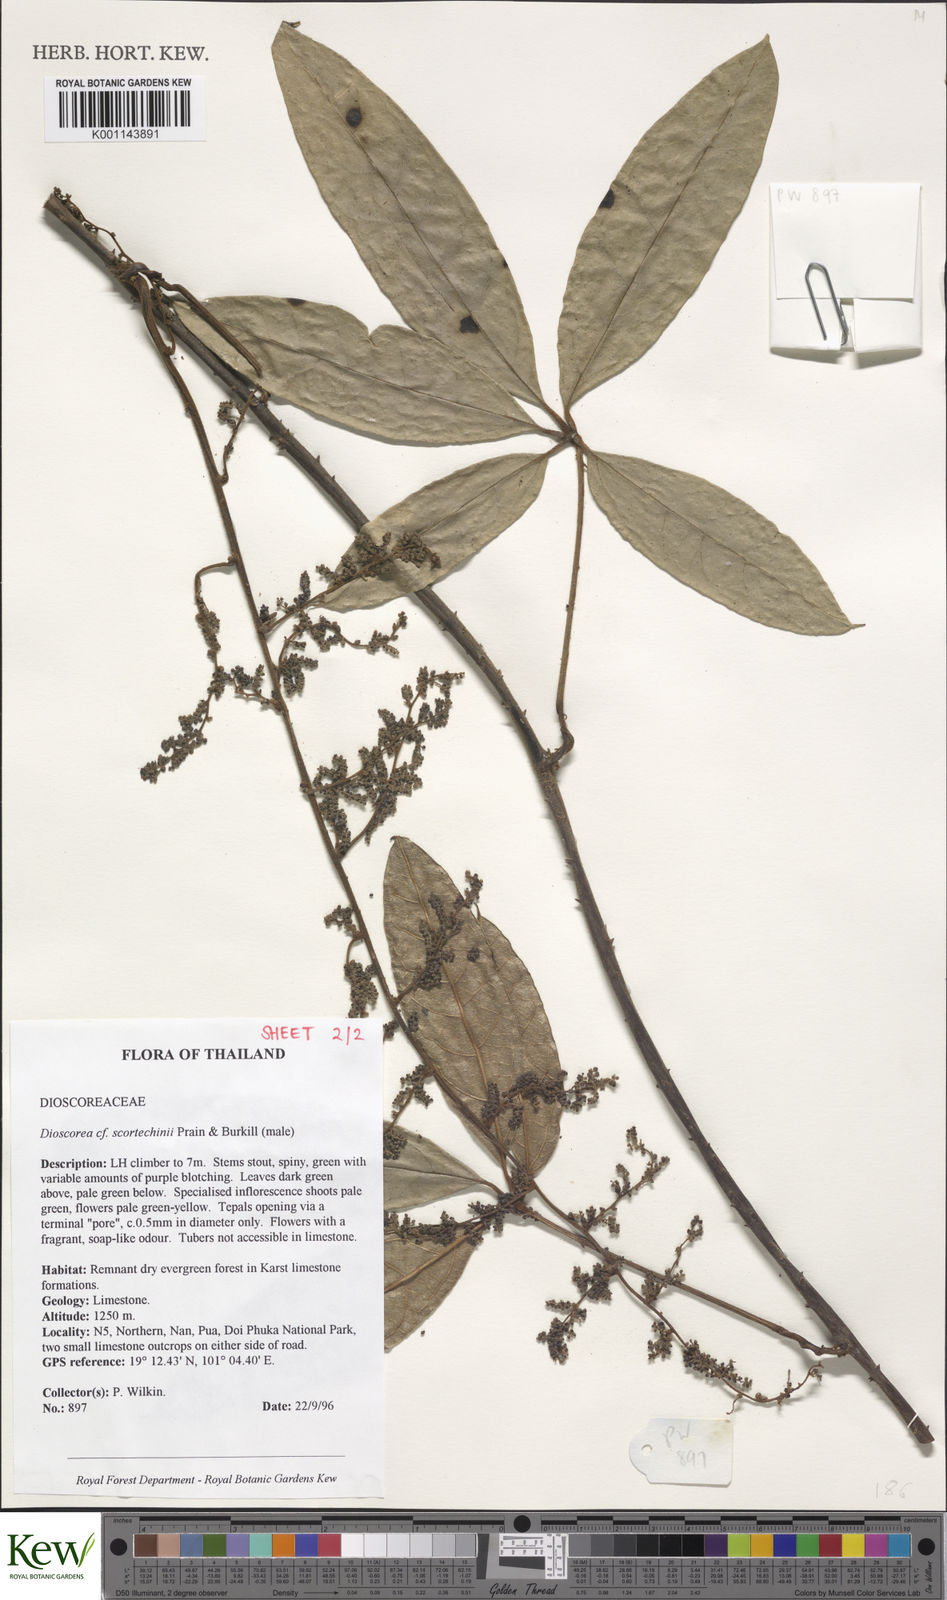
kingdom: Plantae
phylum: Tracheophyta
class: Liliopsida
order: Dioscoreales
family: Dioscoreaceae
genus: Dioscorea
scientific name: Dioscorea scortechinii
